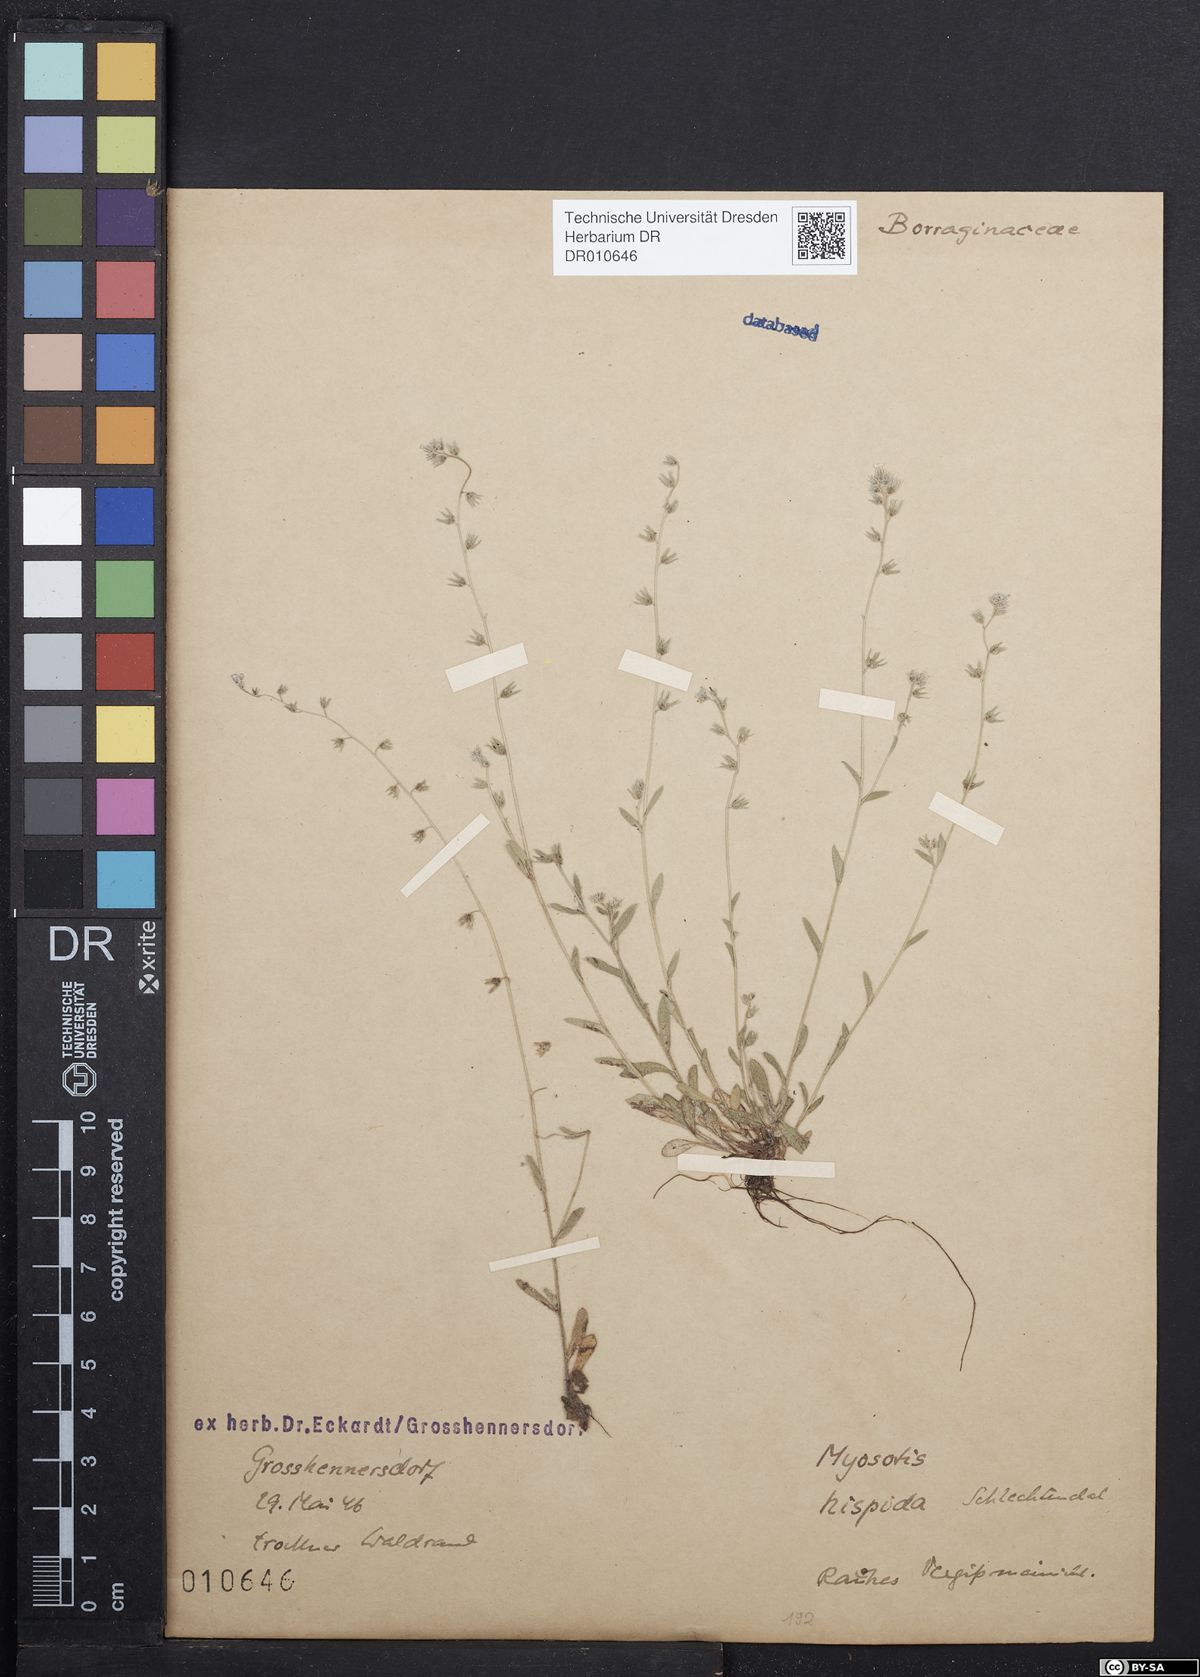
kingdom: Plantae
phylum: Tracheophyta
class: Magnoliopsida
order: Boraginales
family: Boraginaceae
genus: Myosotis
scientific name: Myosotis ramosissima
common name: Early forget-me-not
